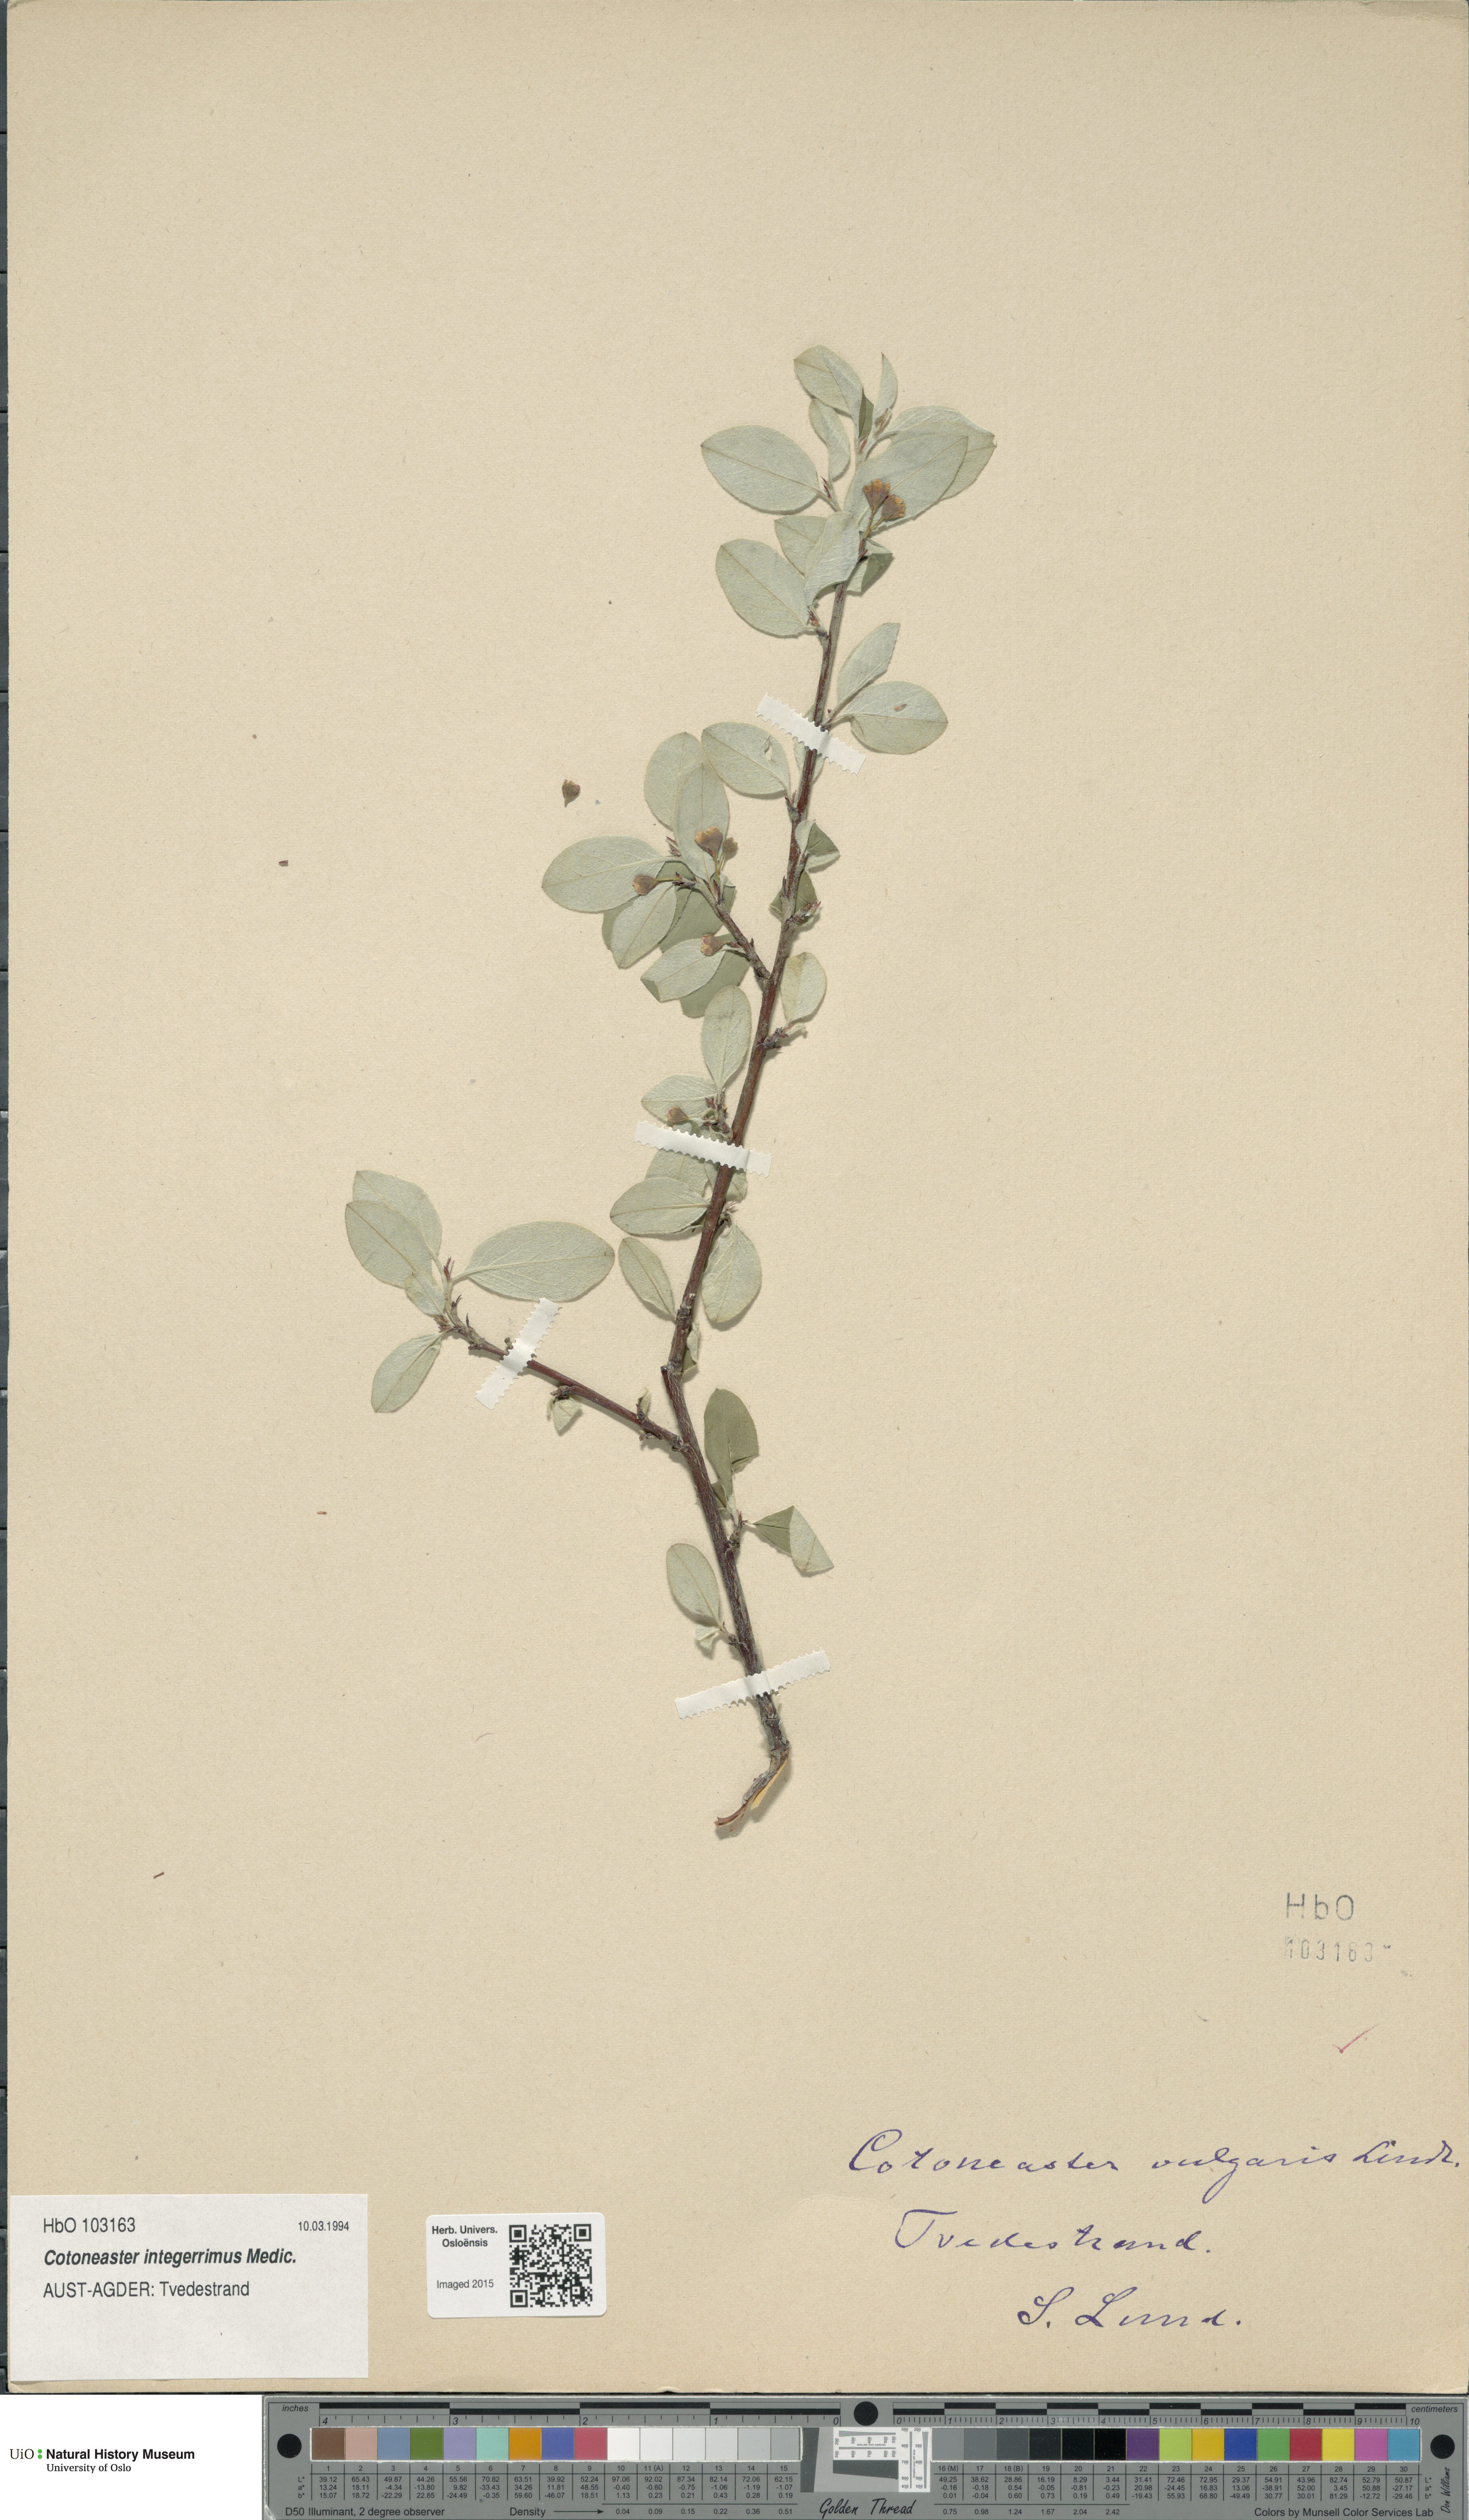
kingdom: Plantae
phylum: Tracheophyta
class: Magnoliopsida
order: Rosales
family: Rosaceae
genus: Cotoneaster
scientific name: Cotoneaster integerrimus
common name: Wild cotoneaster
